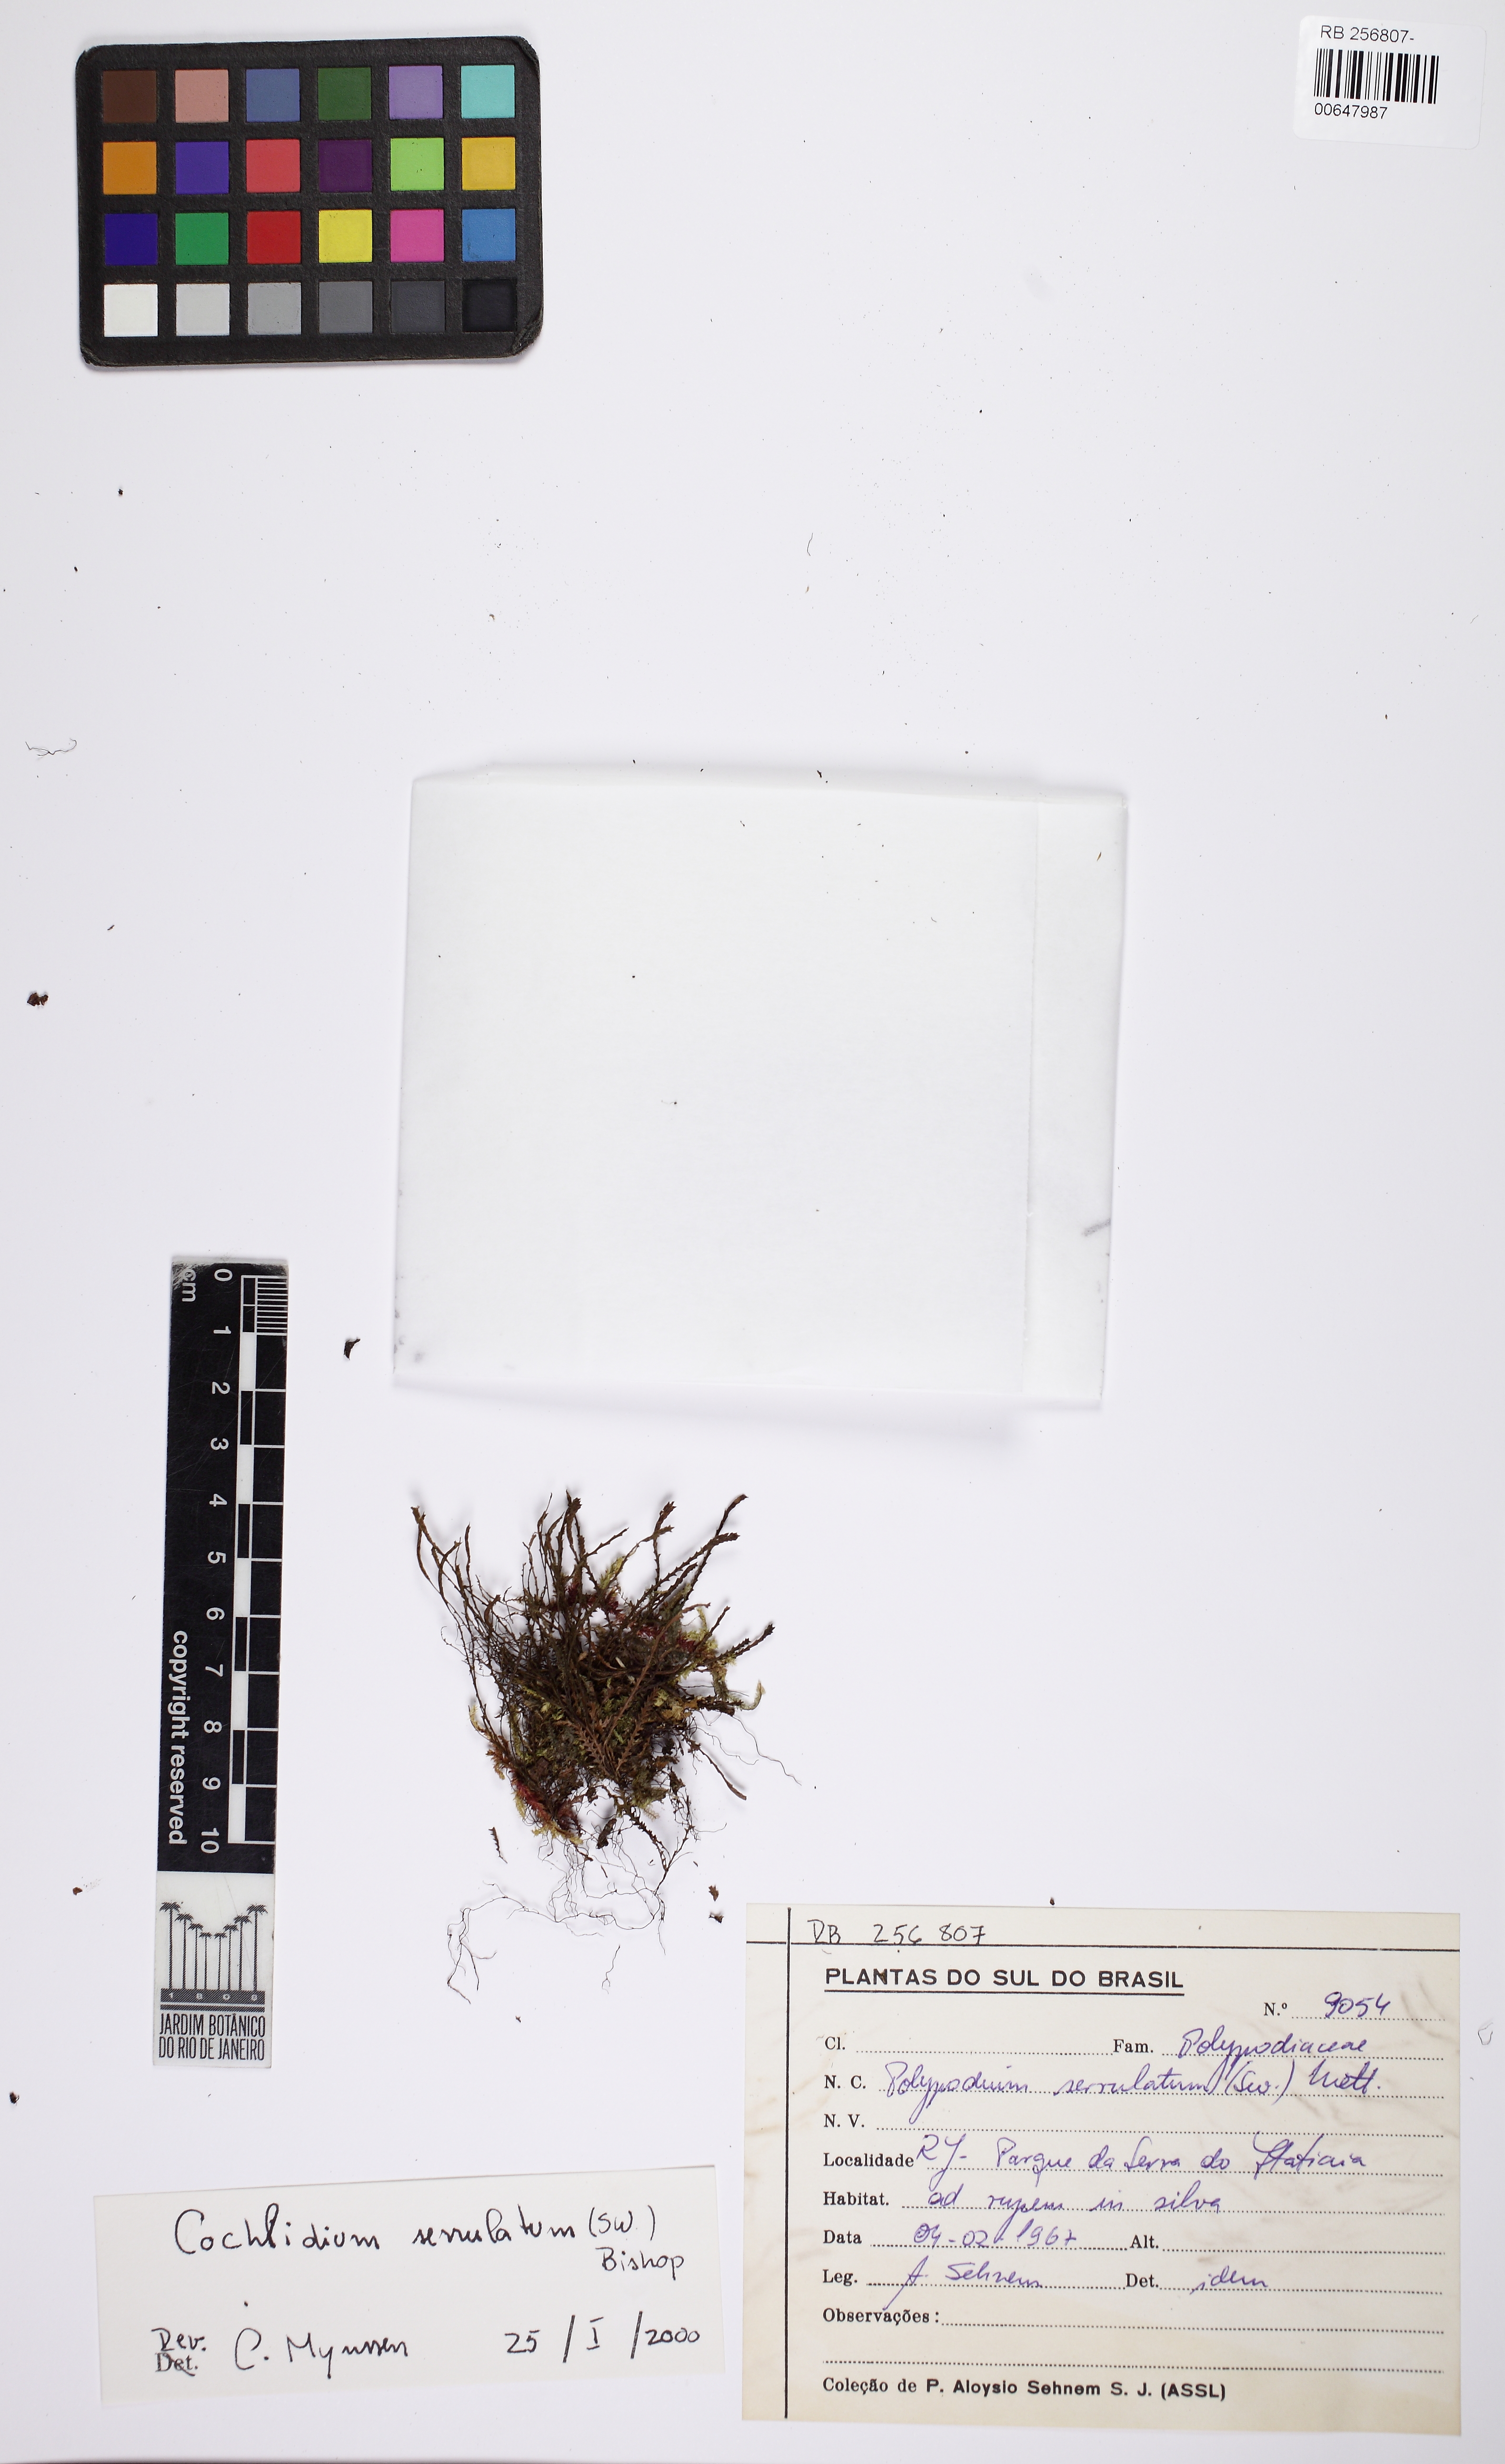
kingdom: Plantae
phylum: Tracheophyta
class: Polypodiopsida
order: Polypodiales
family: Polypodiaceae
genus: Cochlidium
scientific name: Cochlidium serrulatum
